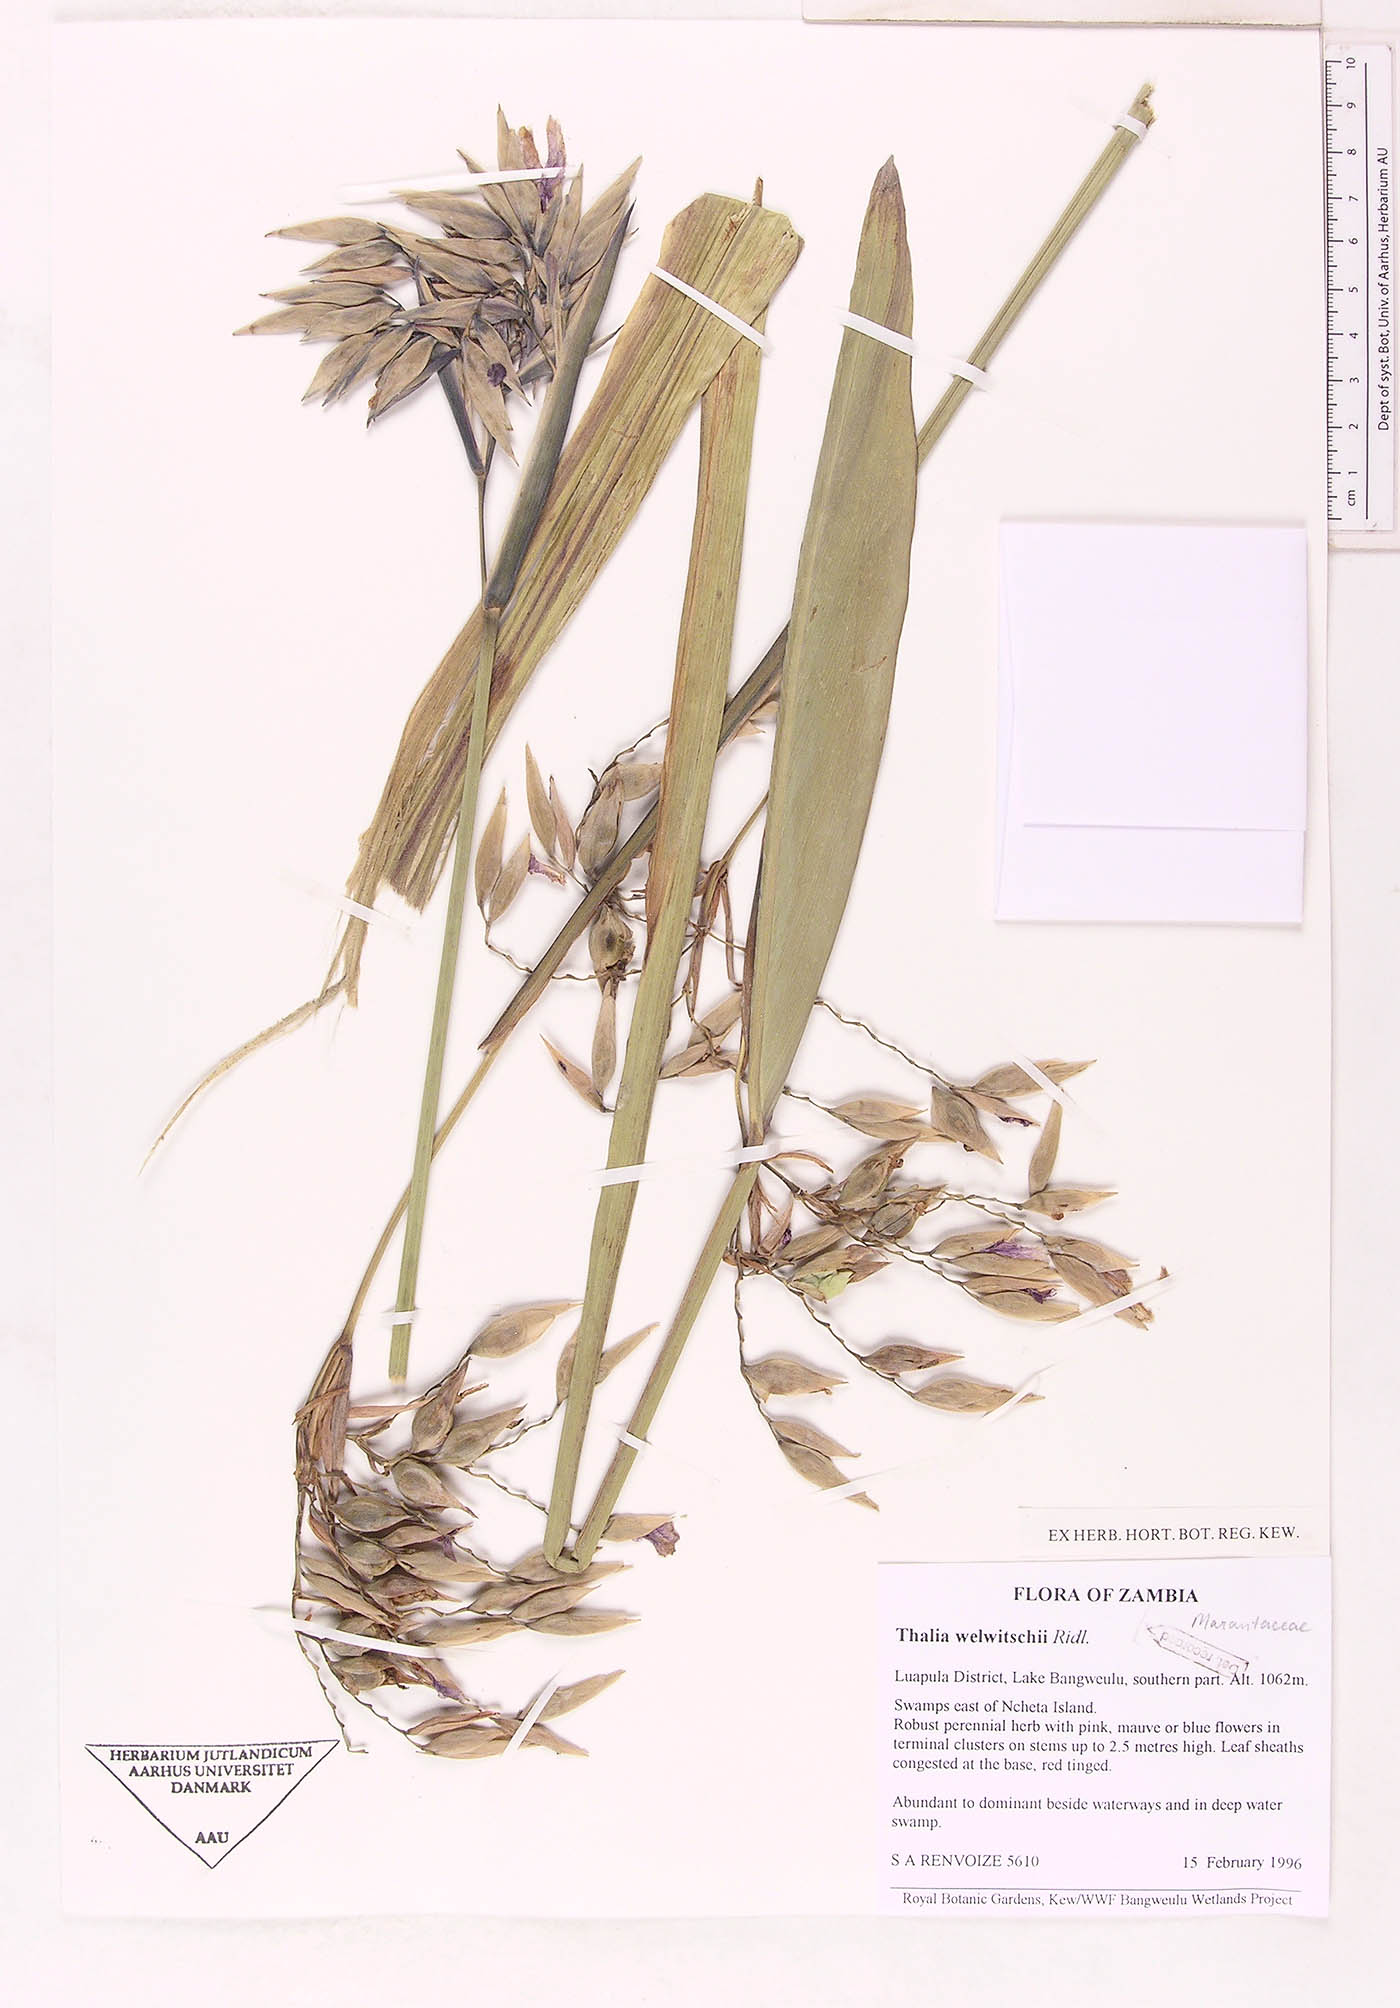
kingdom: Plantae
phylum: Tracheophyta
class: Liliopsida
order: Zingiberales
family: Marantaceae
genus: Thalia
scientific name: Thalia geniculata
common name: Arrowroot
